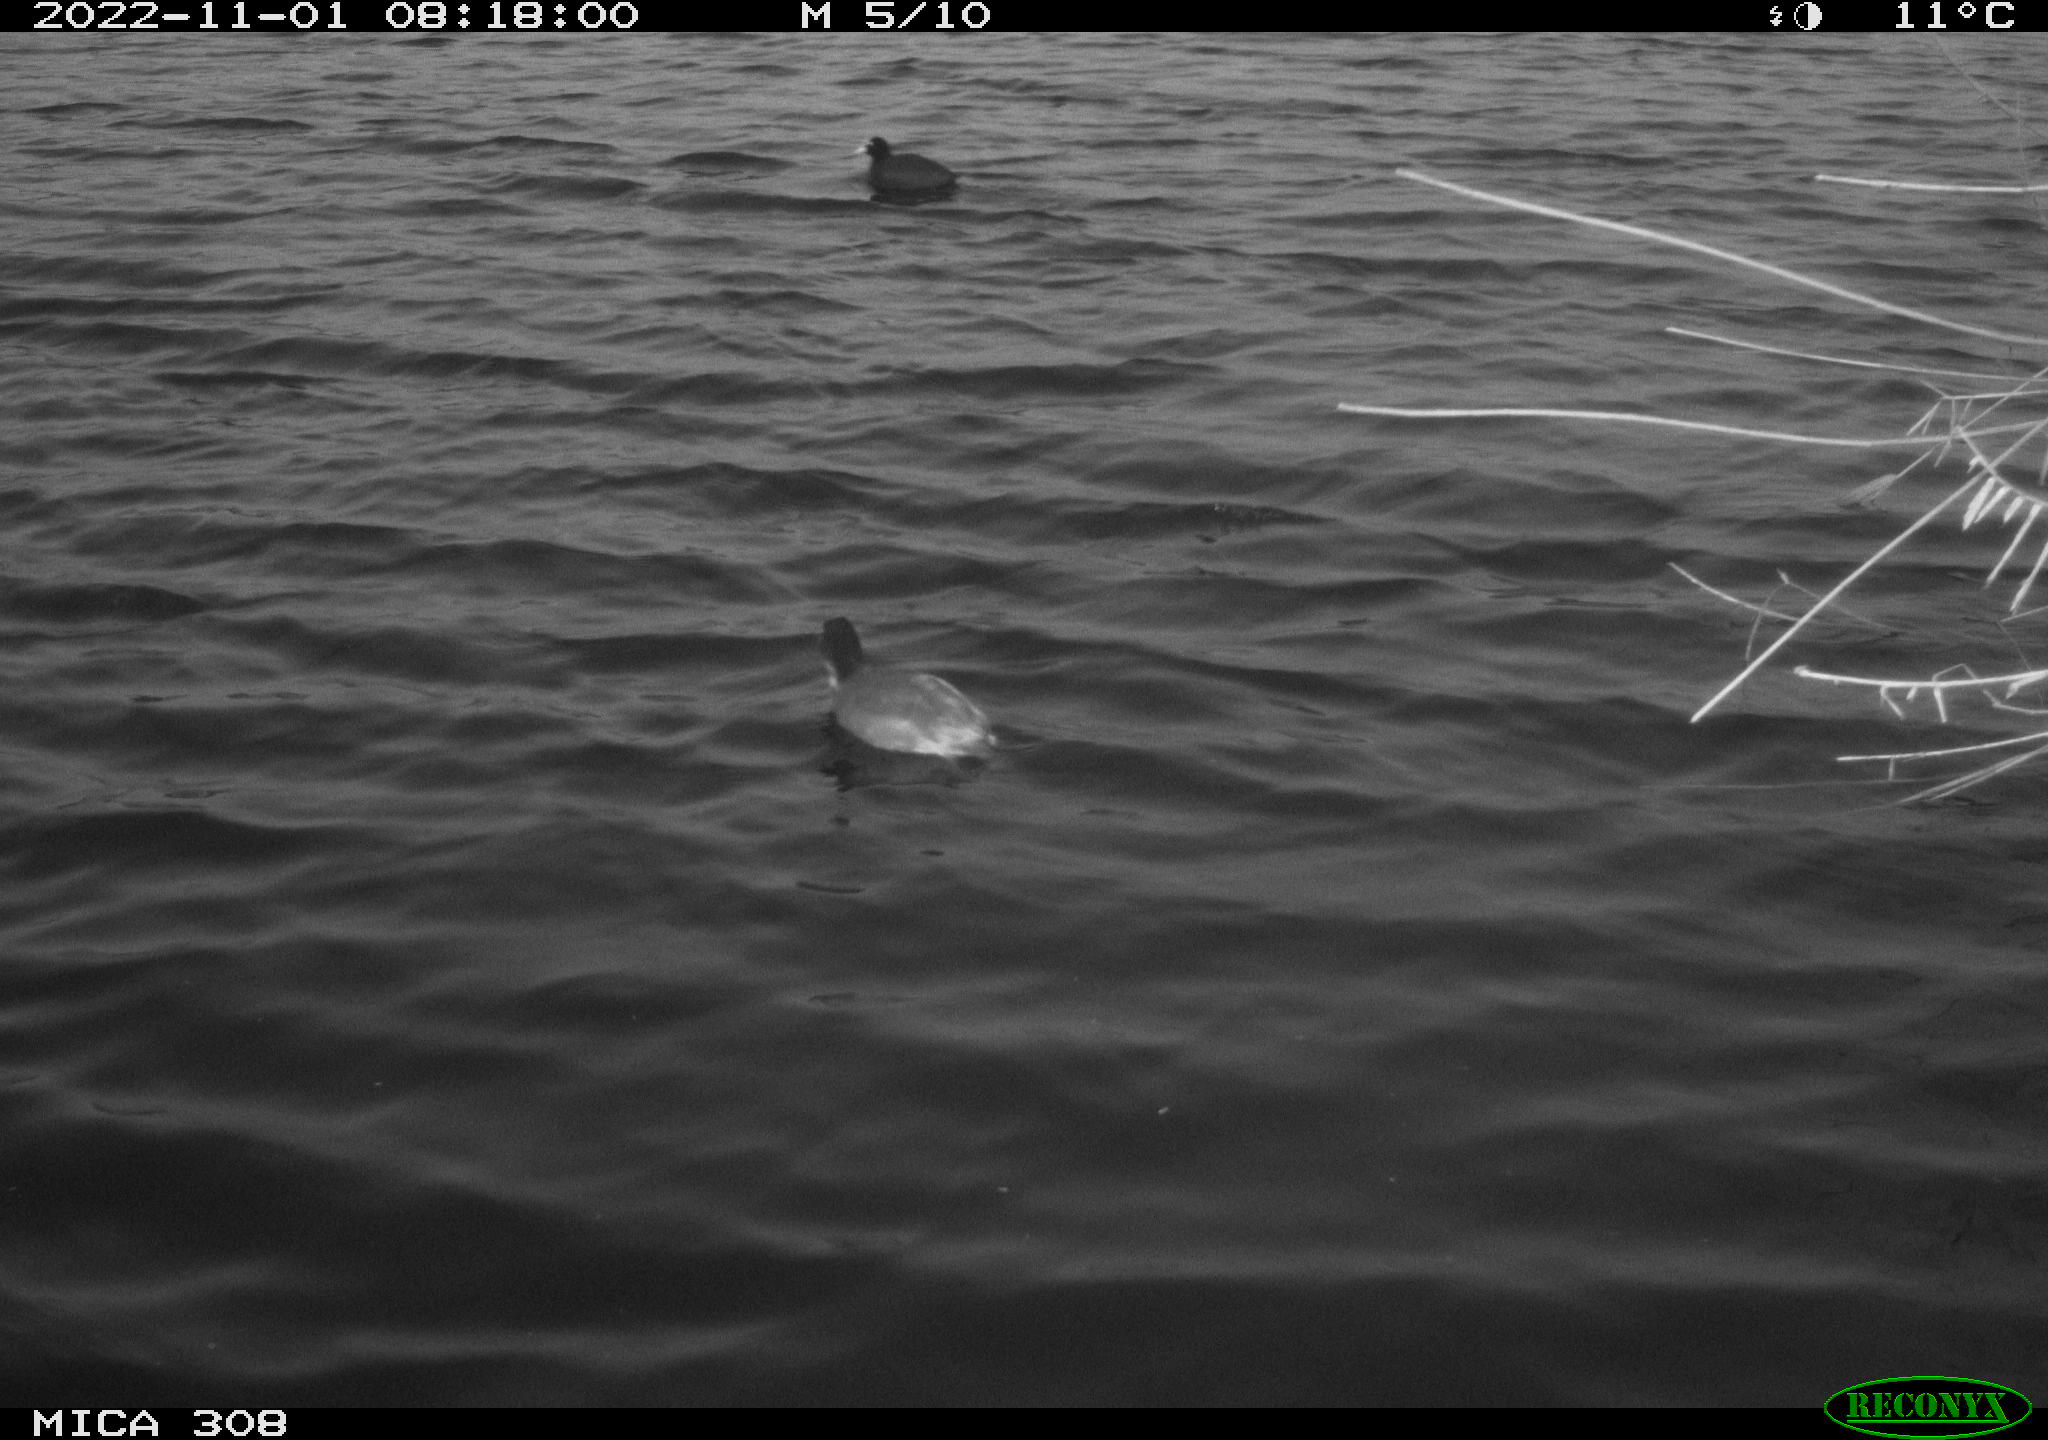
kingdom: Animalia
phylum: Chordata
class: Aves
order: Gruiformes
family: Rallidae
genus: Fulica
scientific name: Fulica atra
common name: Eurasian coot
